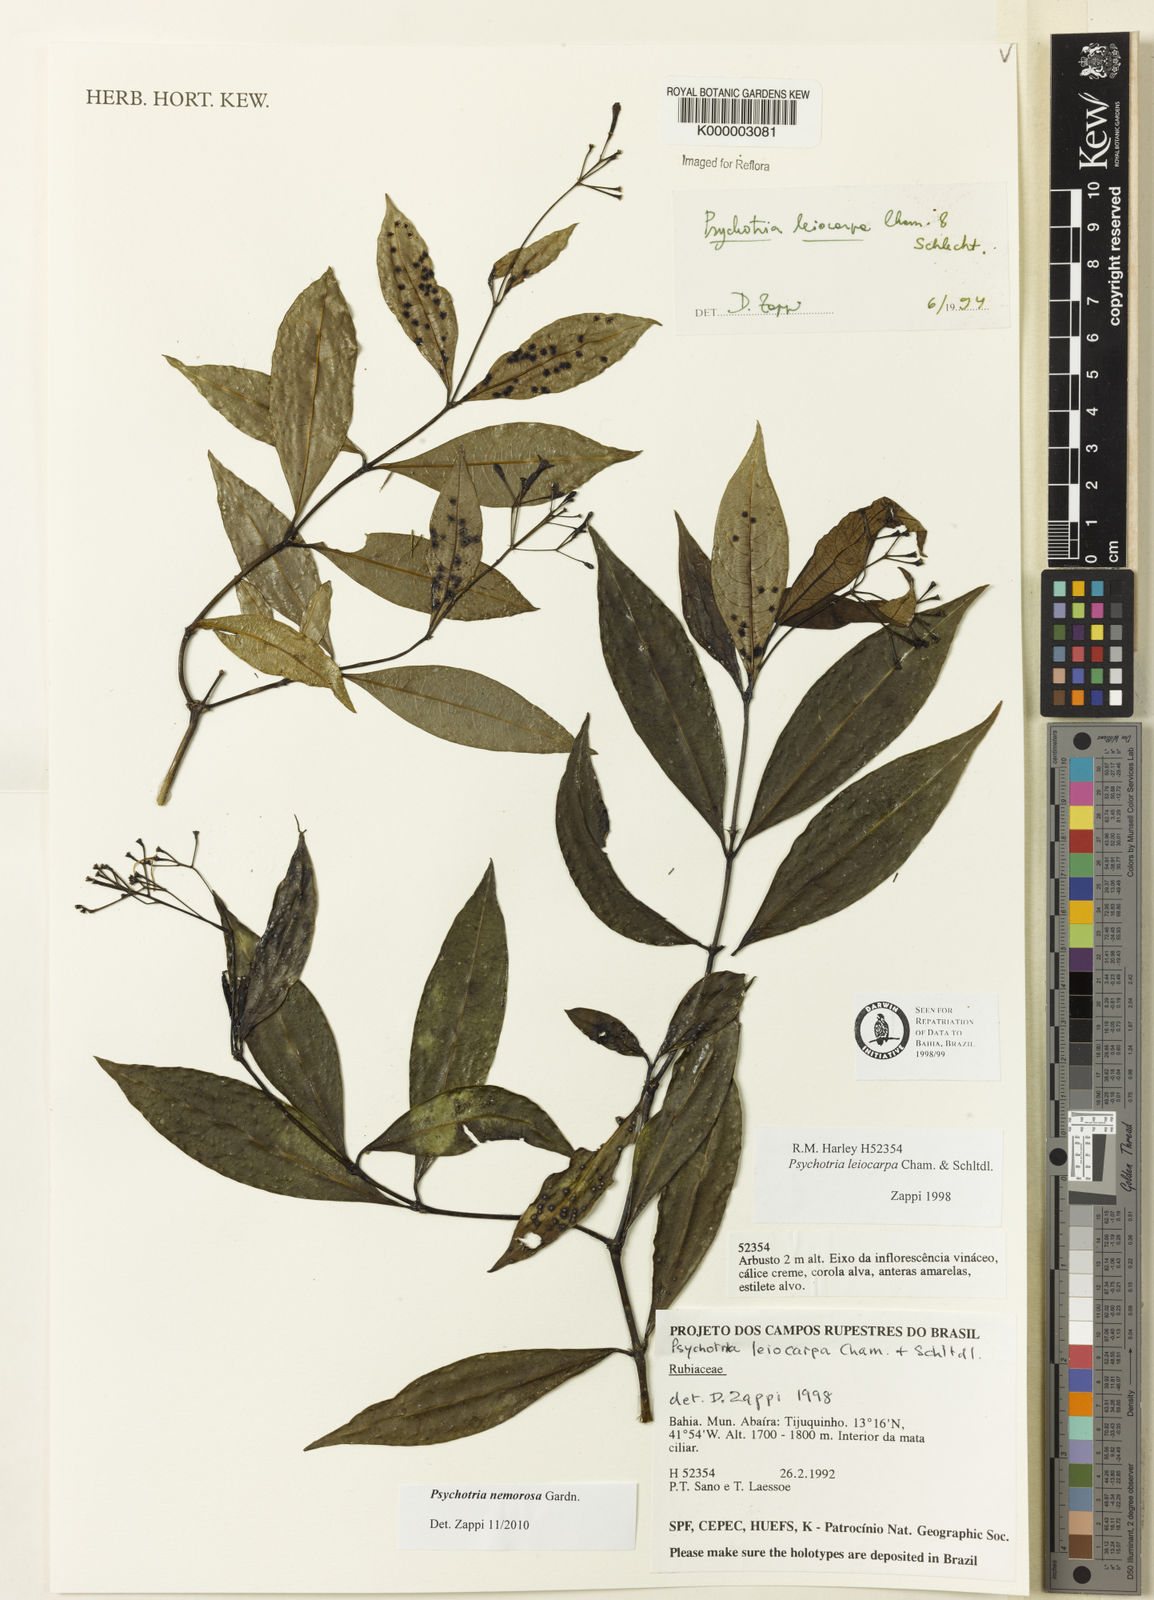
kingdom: Plantae
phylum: Tracheophyta
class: Magnoliopsida
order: Gentianales
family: Rubiaceae
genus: Psychotria
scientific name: Psychotria nemorosa
